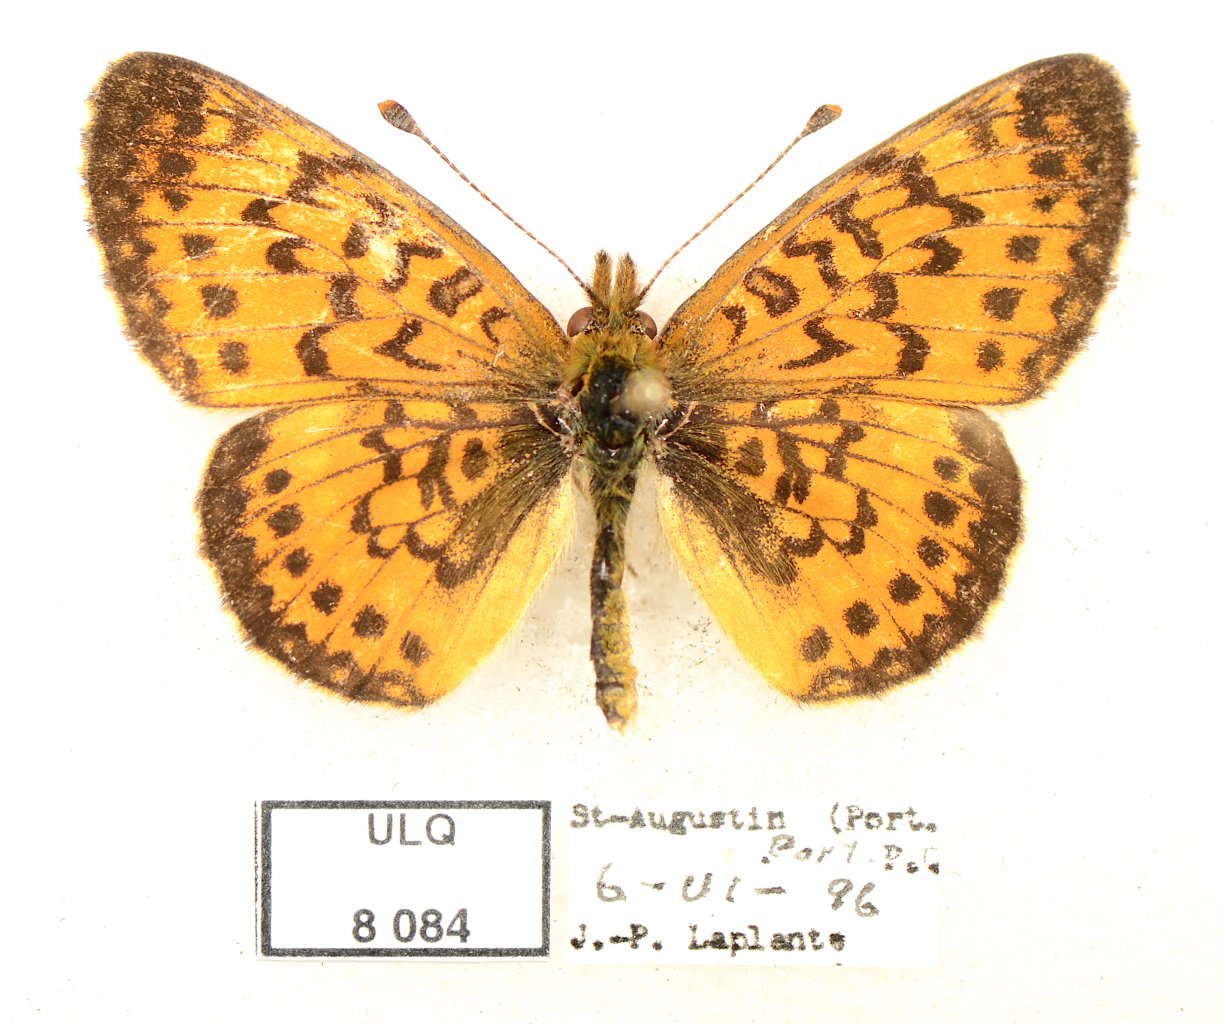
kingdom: Animalia
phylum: Arthropoda
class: Insecta
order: Lepidoptera
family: Nymphalidae
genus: Boloria
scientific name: Boloria selene
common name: Silver-bordered Fritillary
